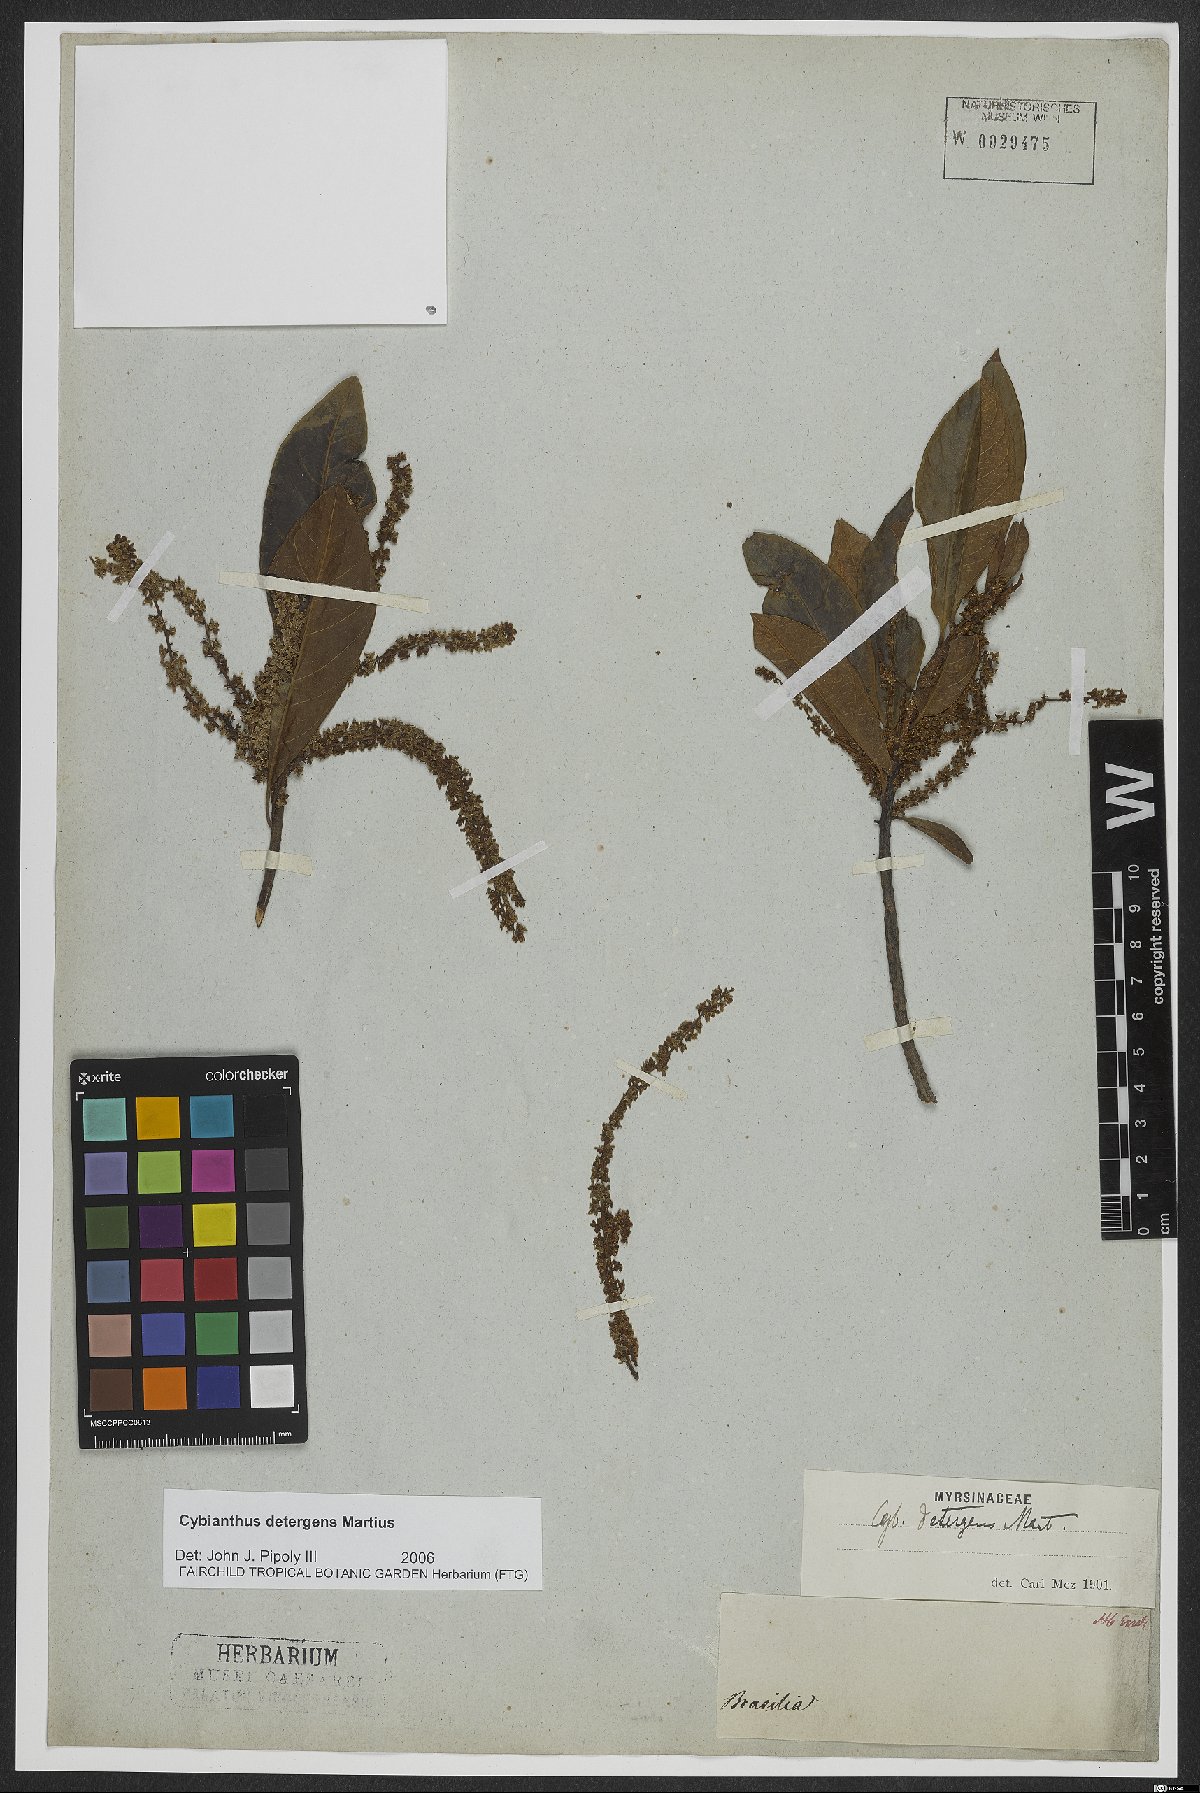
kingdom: Plantae
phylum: Tracheophyta
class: Magnoliopsida
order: Ericales
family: Primulaceae
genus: Cybianthus
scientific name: Cybianthus detergens
